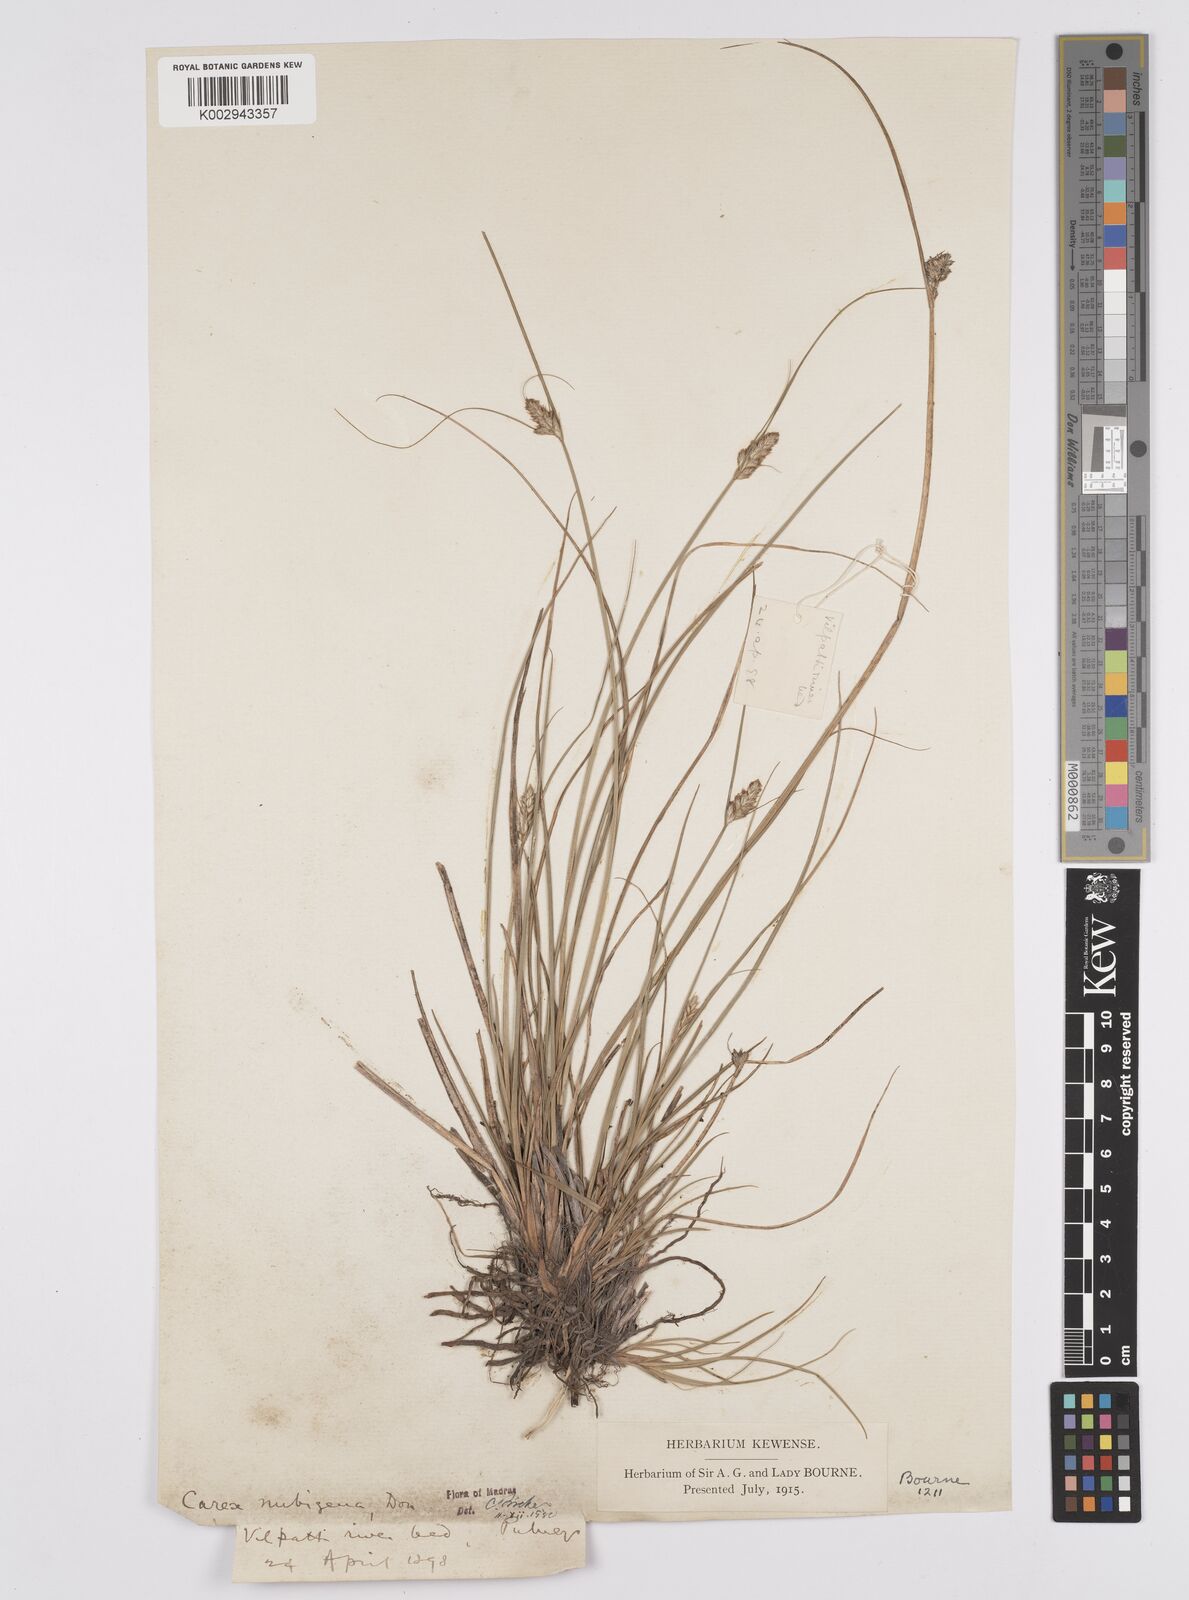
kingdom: Plantae
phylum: Tracheophyta
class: Liliopsida
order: Poales
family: Cyperaceae
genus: Carex
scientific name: Carex nubigena
